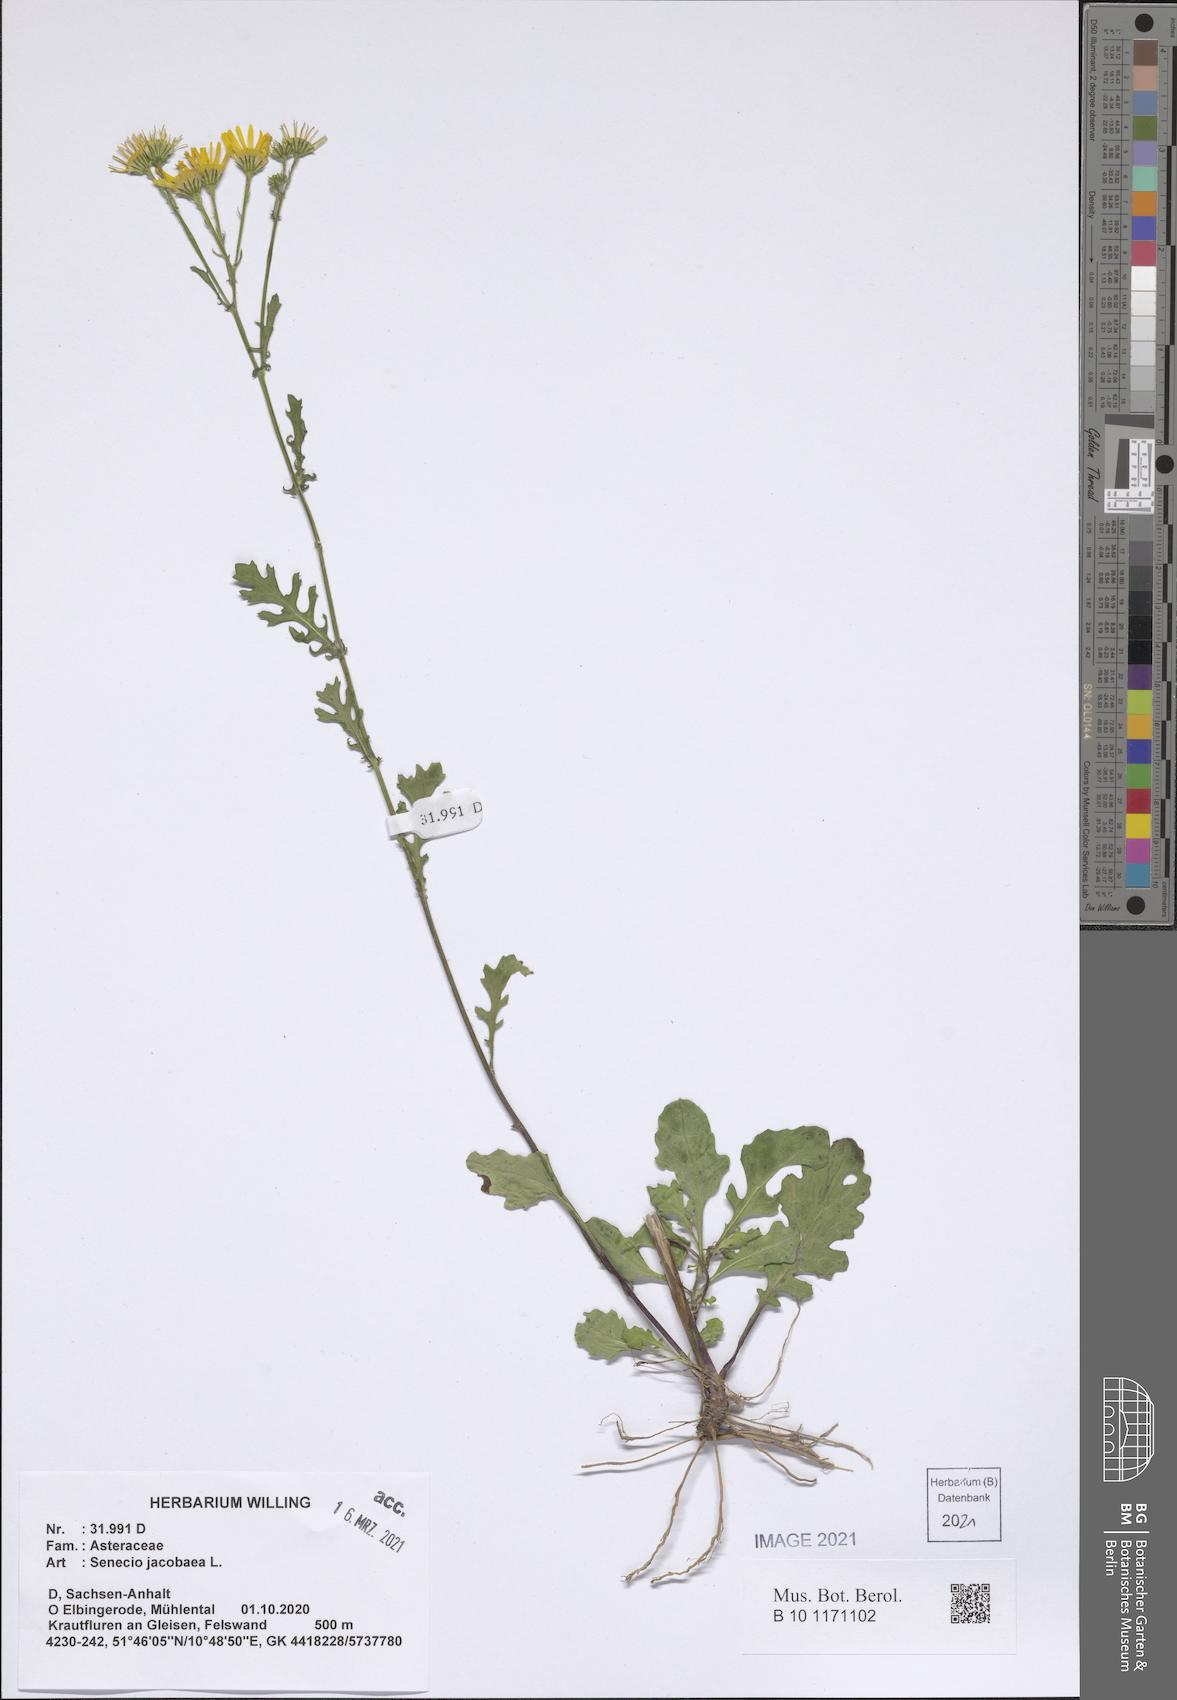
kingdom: Plantae
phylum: Tracheophyta
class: Magnoliopsida
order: Asterales
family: Asteraceae
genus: Jacobaea
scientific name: Jacobaea vulgaris
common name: Stinking willie
